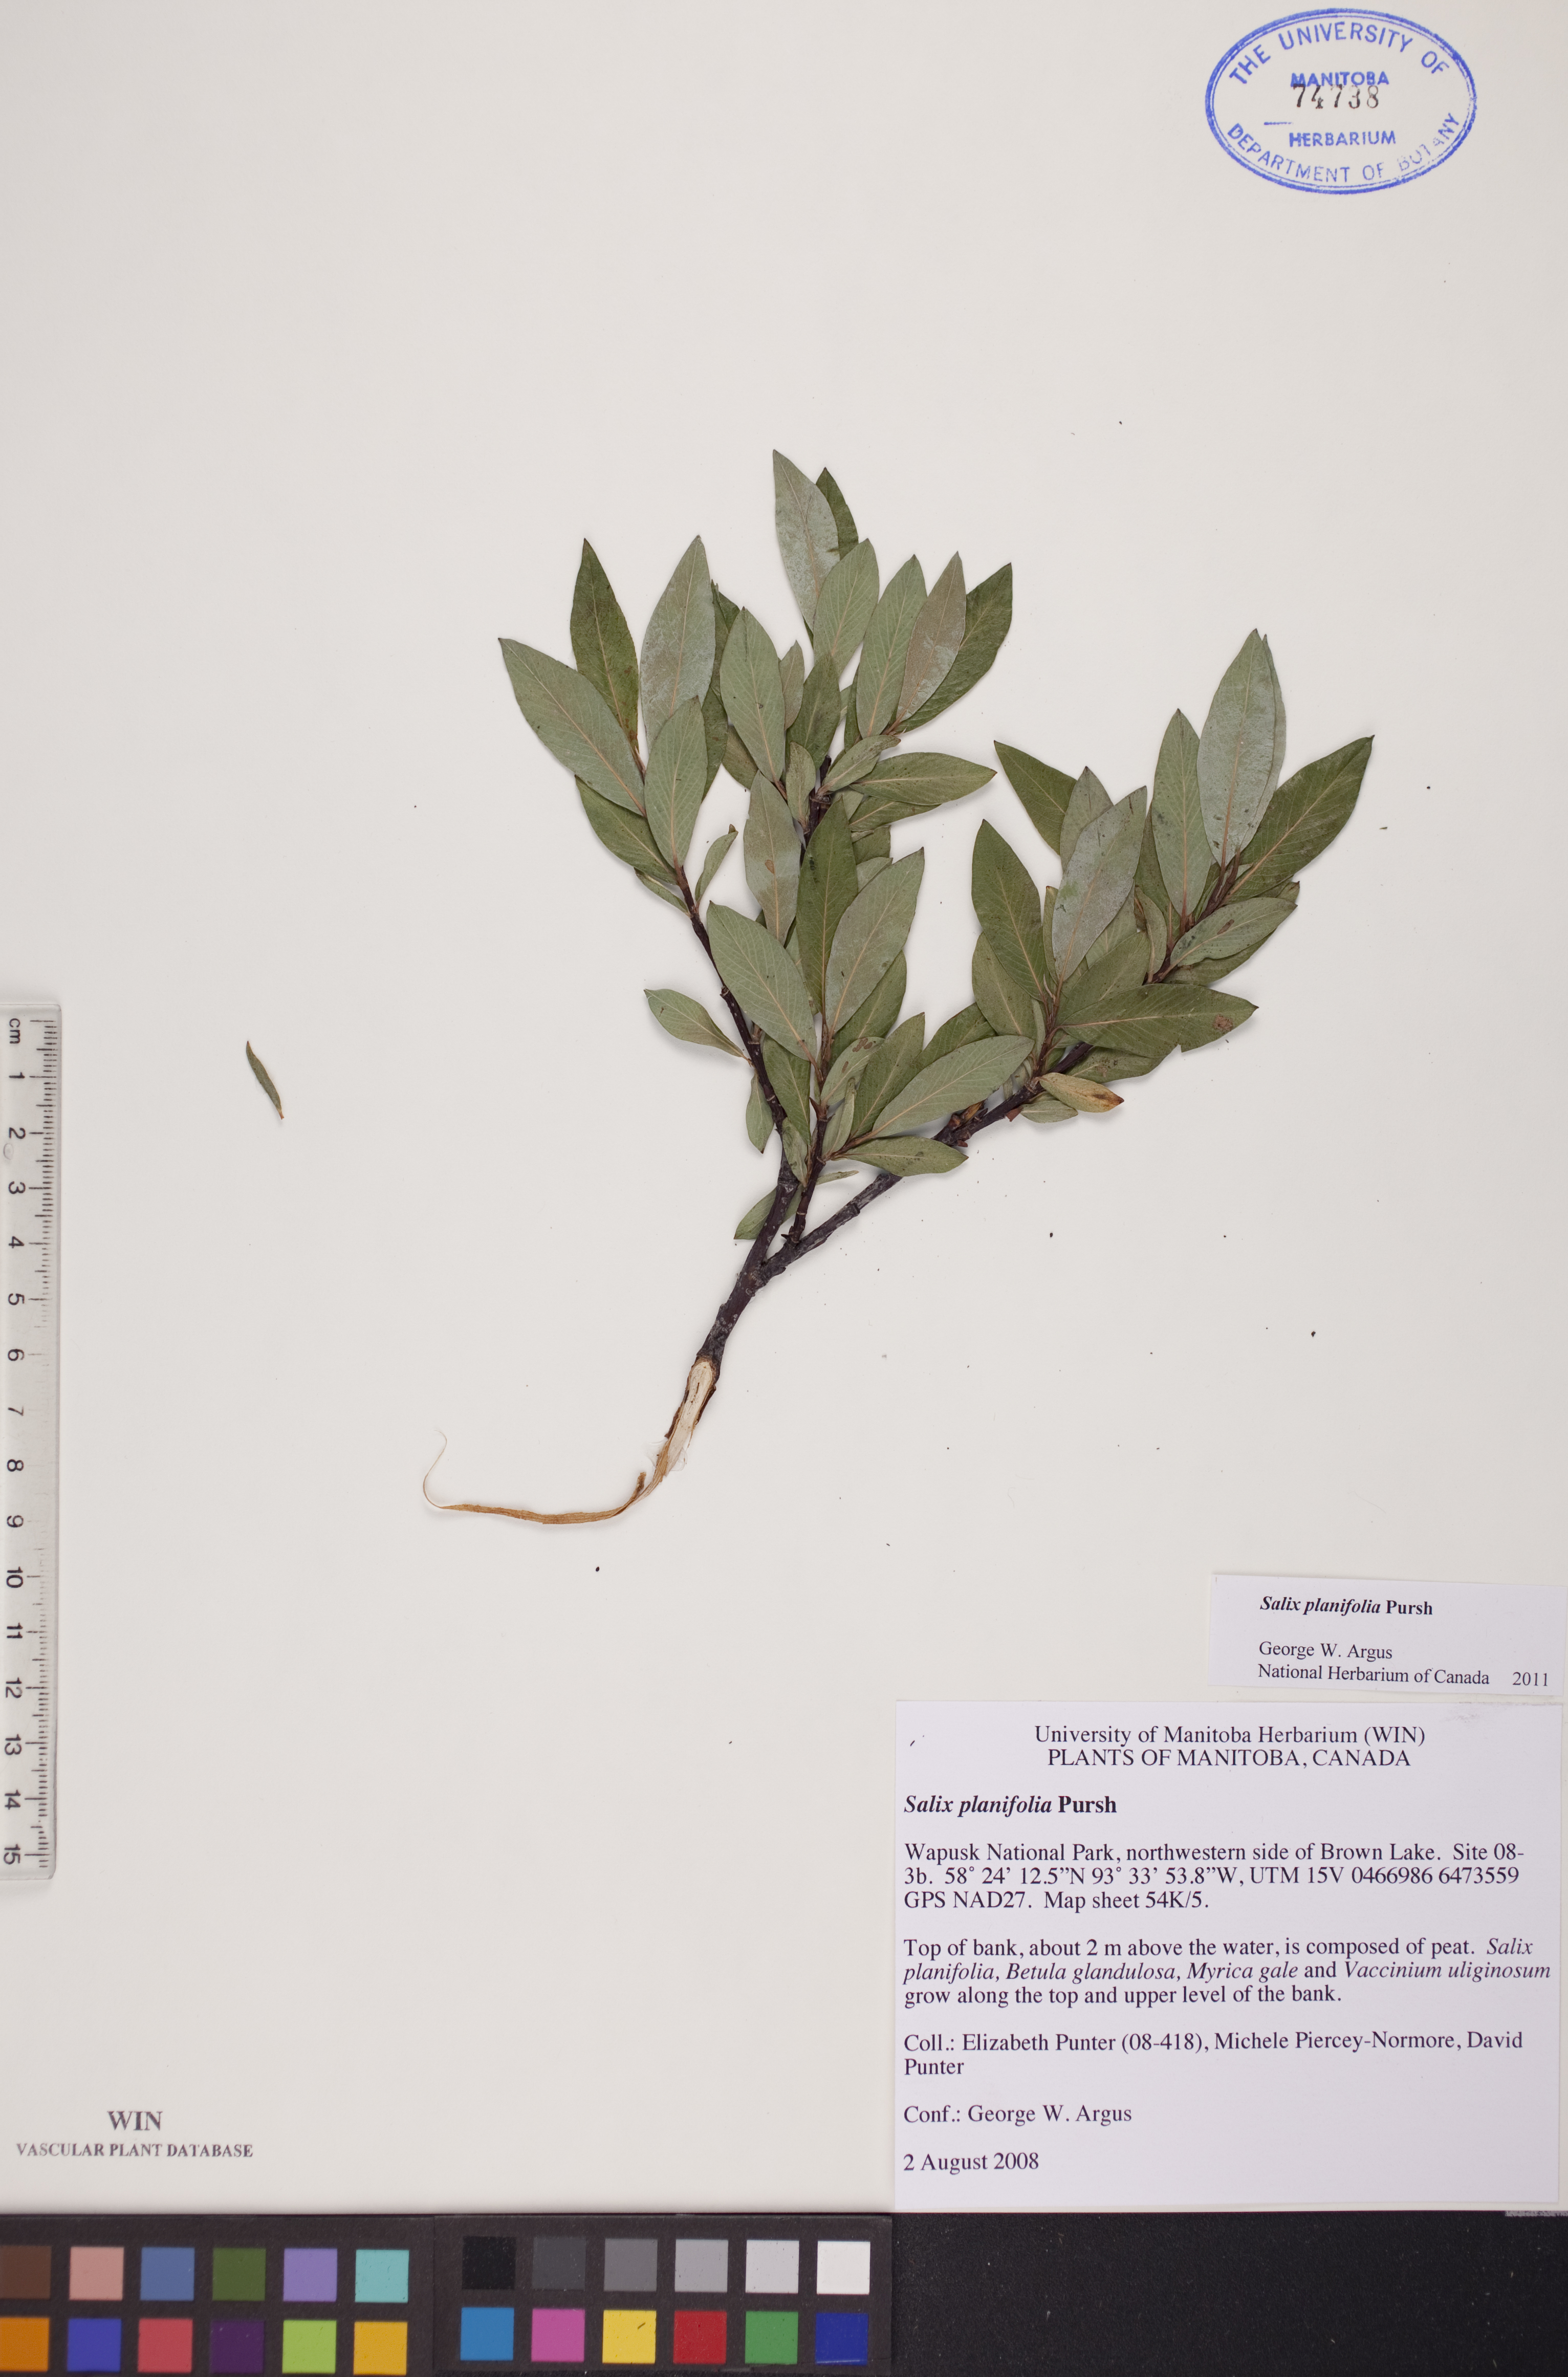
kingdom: Plantae
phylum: Tracheophyta
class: Magnoliopsida
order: Malpighiales
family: Salicaceae
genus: Salix
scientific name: Salix planifolia
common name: Mountain willow
